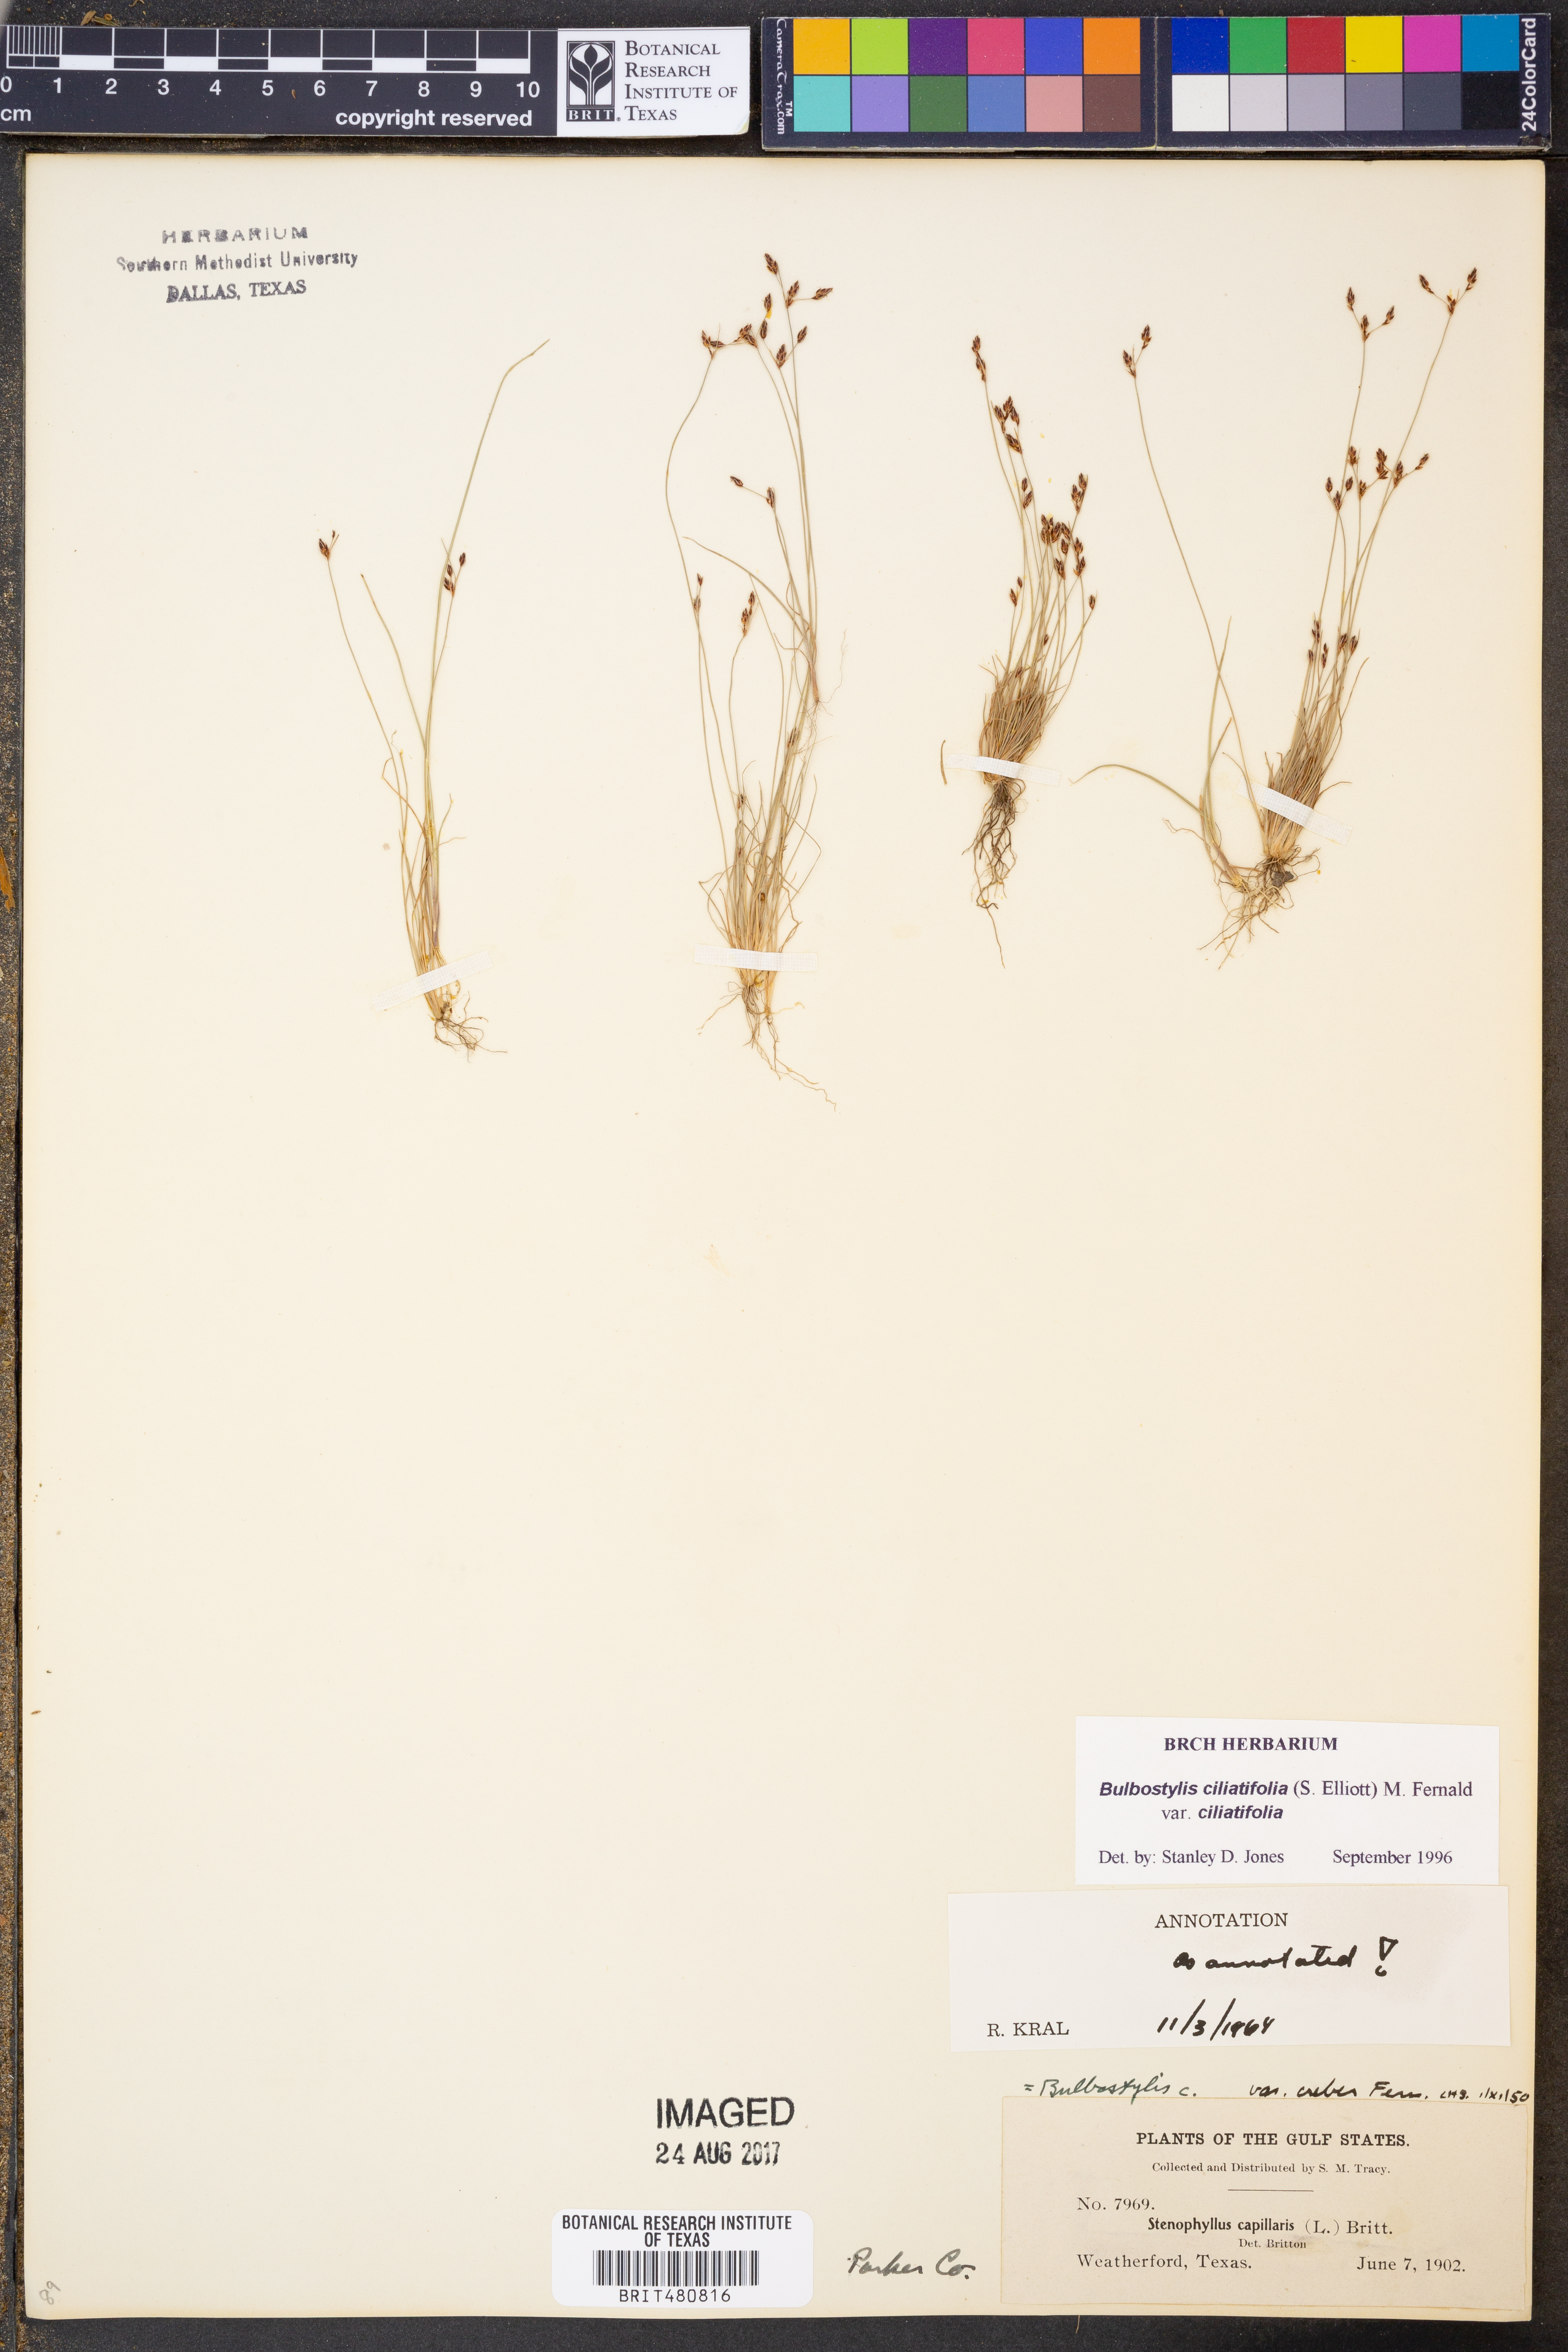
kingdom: Plantae
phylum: Tracheophyta
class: Liliopsida
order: Poales
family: Cyperaceae
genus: Bulbostylis
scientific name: Bulbostylis ciliatifolia
